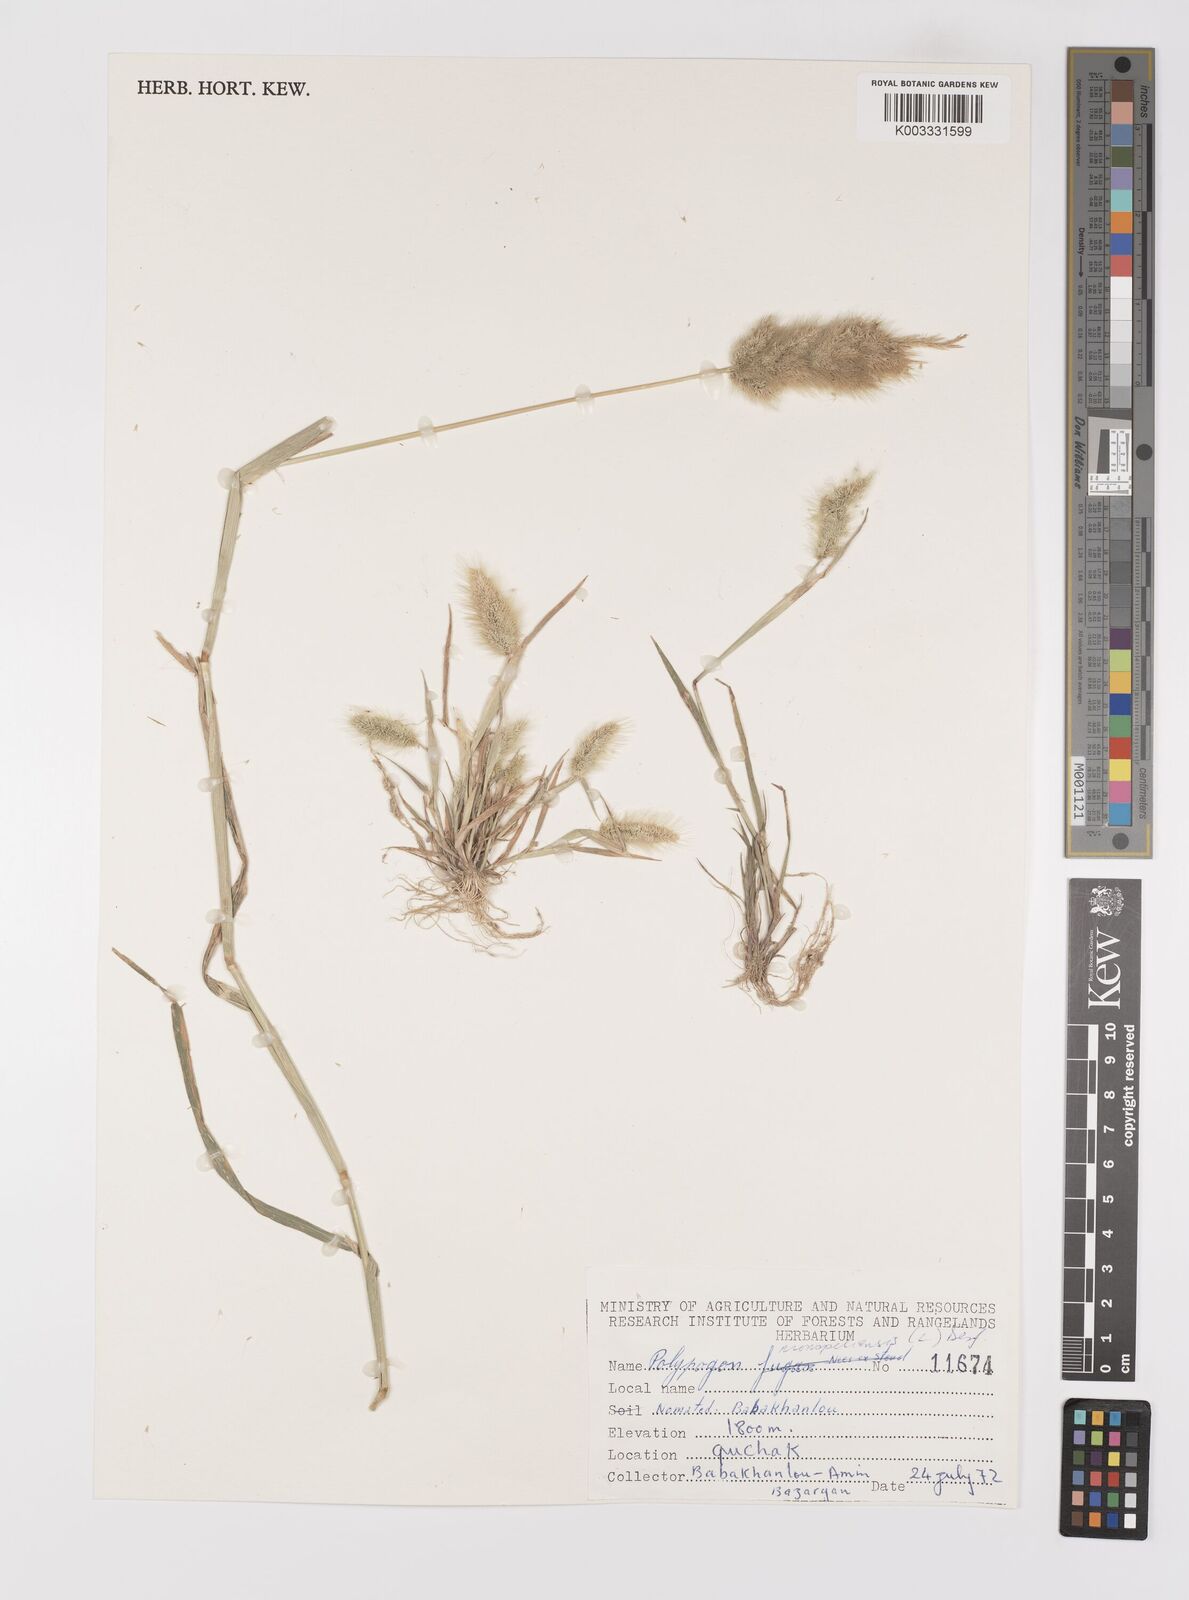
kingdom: Plantae
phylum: Tracheophyta
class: Liliopsida
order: Poales
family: Poaceae
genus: Polypogon
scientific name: Polypogon monspeliensis
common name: Annual rabbitsfoot grass
